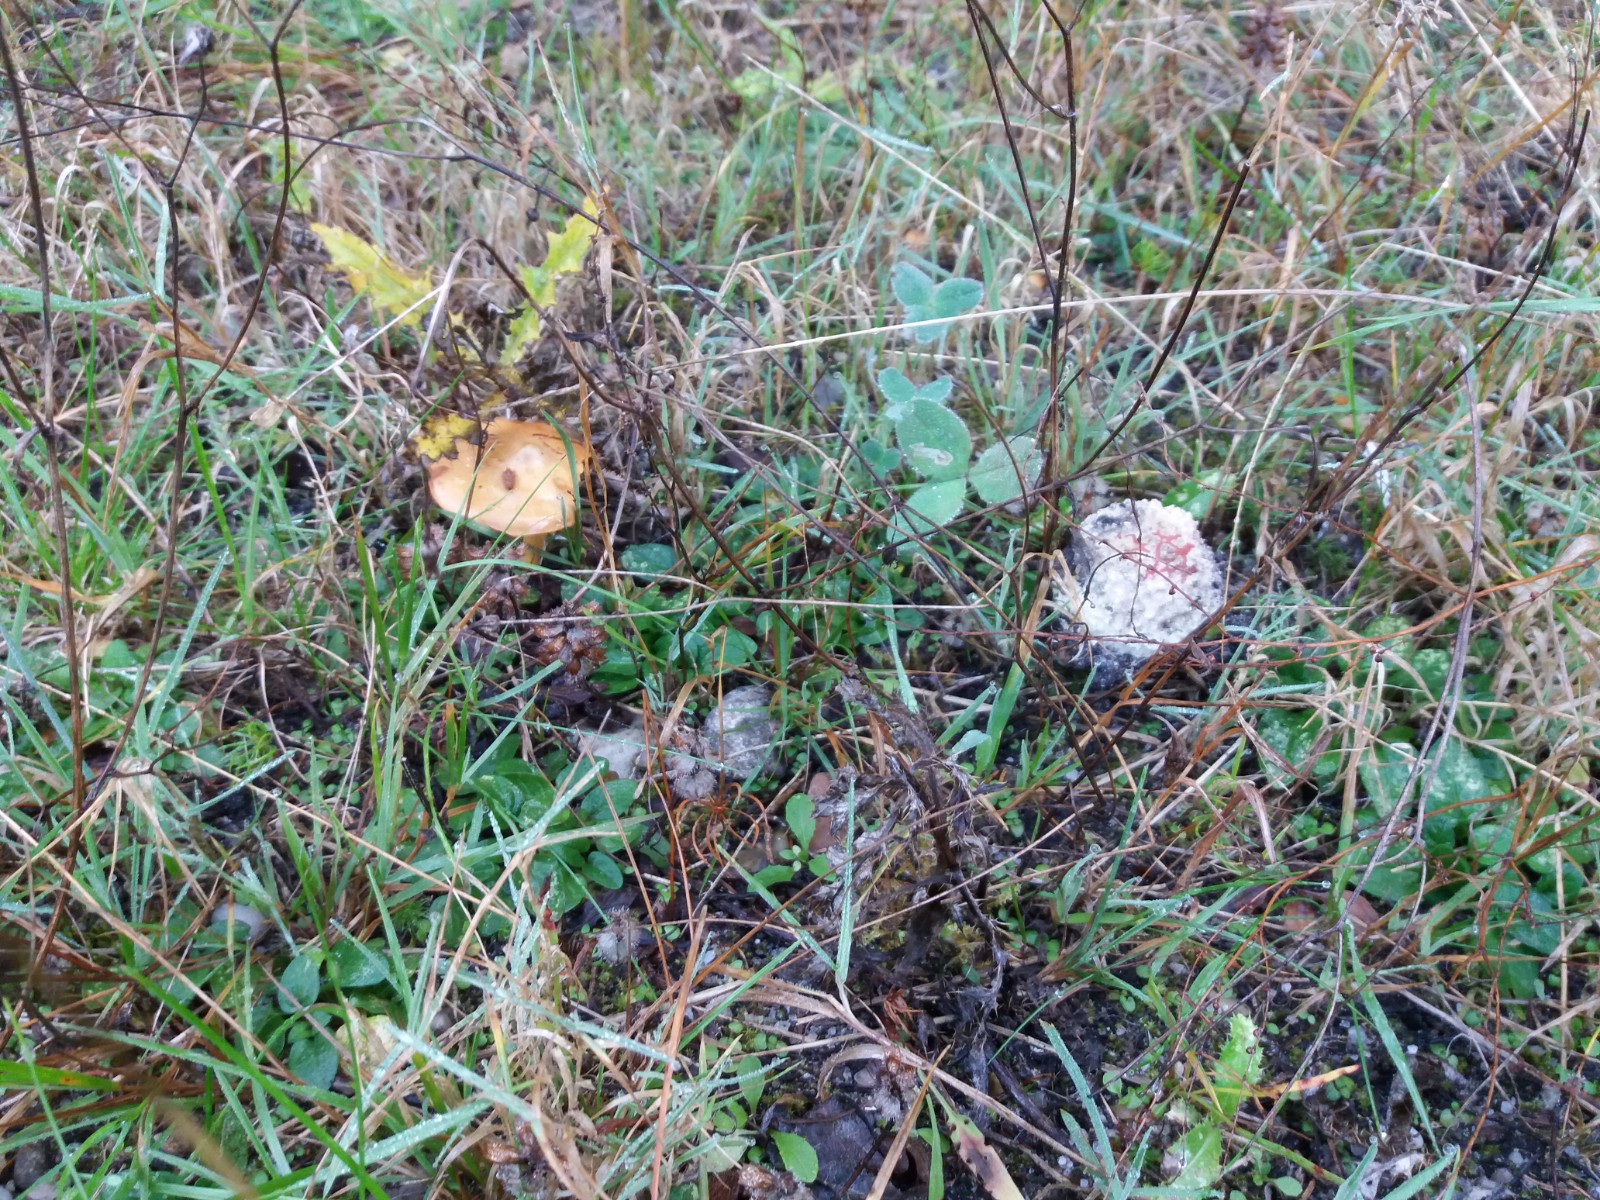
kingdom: Fungi
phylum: Basidiomycota
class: Agaricomycetes
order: Agaricales
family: Amanitaceae
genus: Amanita
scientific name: Amanita muscaria
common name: rød fluesvamp
